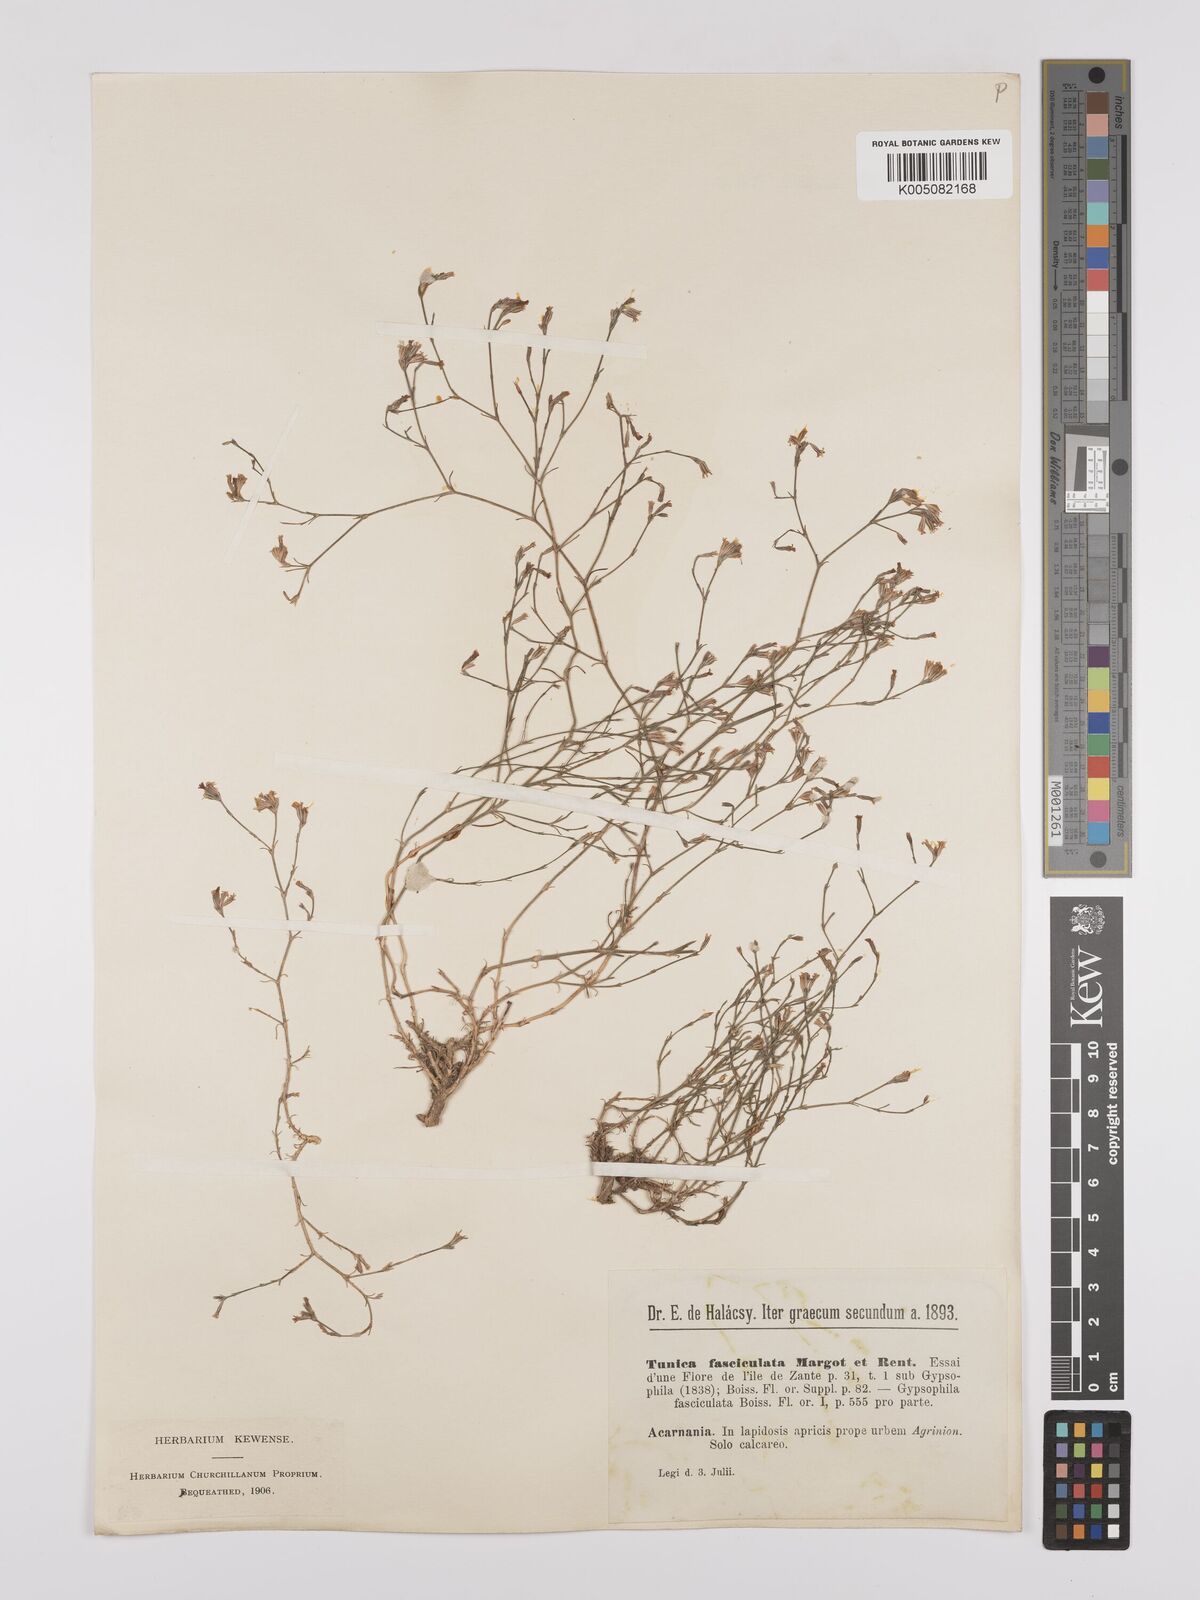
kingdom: Plantae
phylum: Tracheophyta
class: Magnoliopsida
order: Caryophyllales
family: Caryophyllaceae
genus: Petrorhagia
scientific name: Petrorhagia fasciculata
